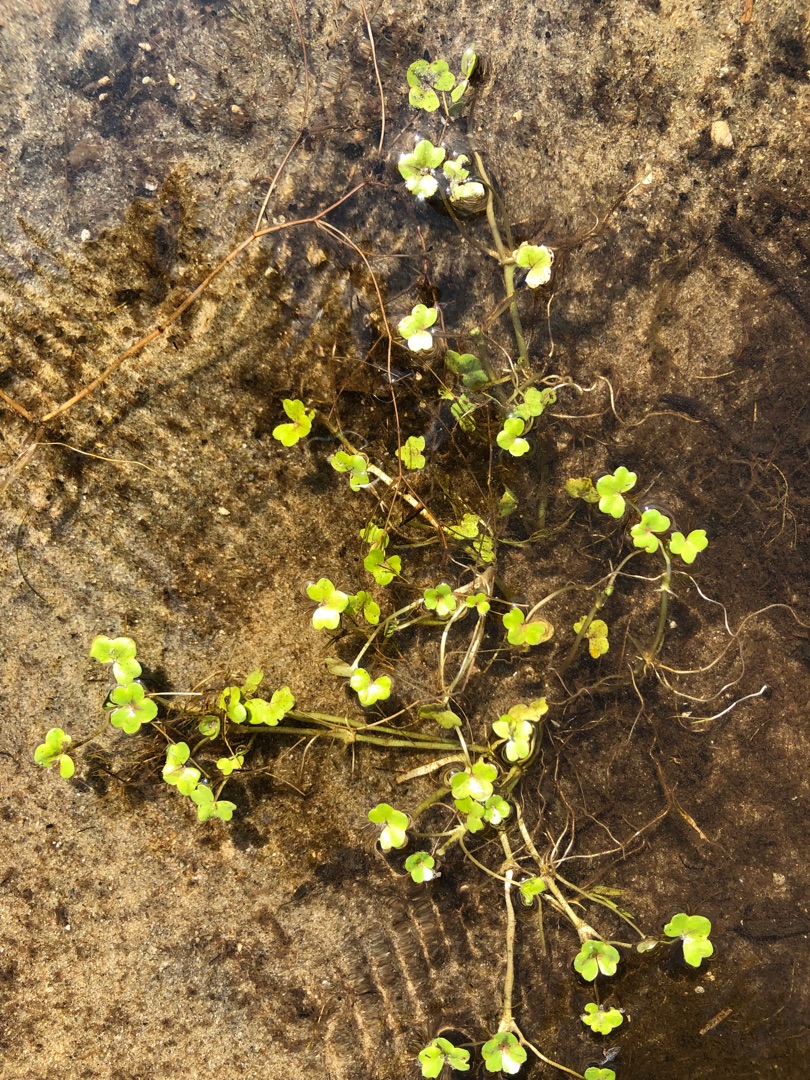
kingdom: Plantae
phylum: Tracheophyta
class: Magnoliopsida
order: Ranunculales
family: Ranunculaceae
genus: Ranunculus
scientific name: Ranunculus hederaceus
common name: Vedbend-vandranunkel
